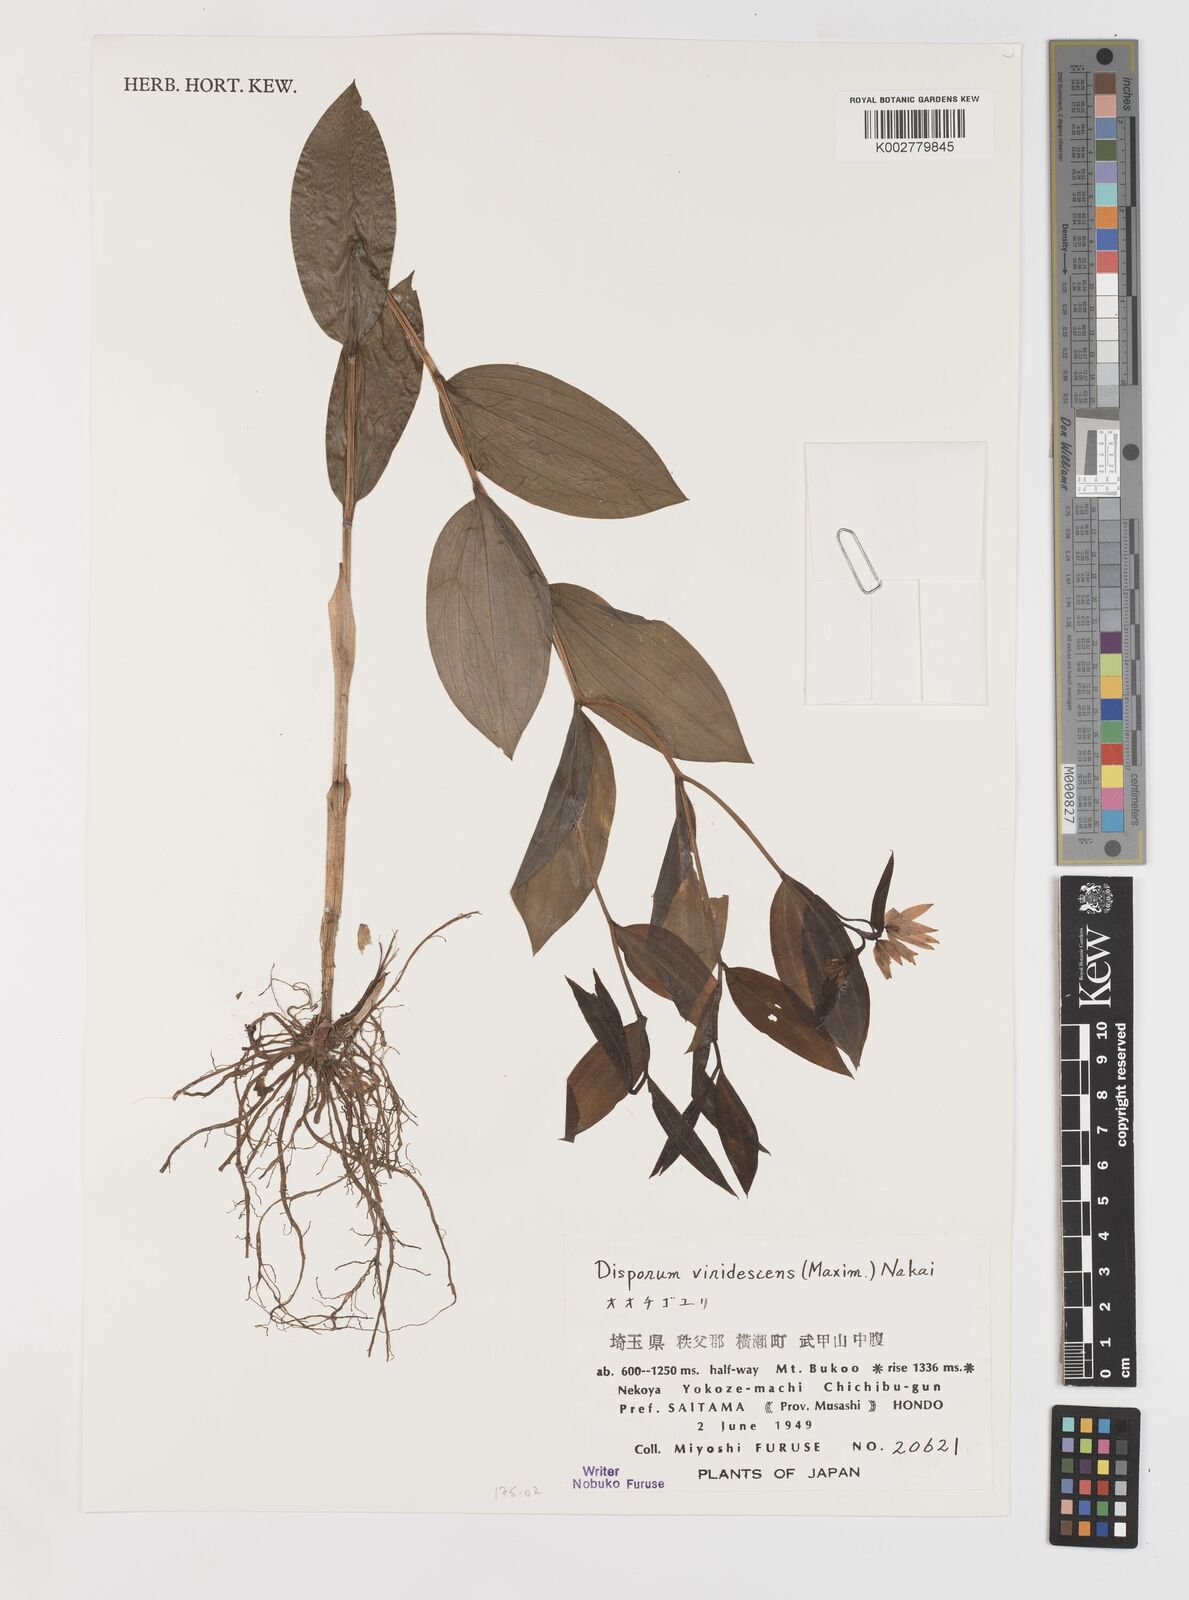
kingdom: Plantae
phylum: Tracheophyta
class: Liliopsida
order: Liliales
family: Colchicaceae
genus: Disporum
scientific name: Disporum viridescens
